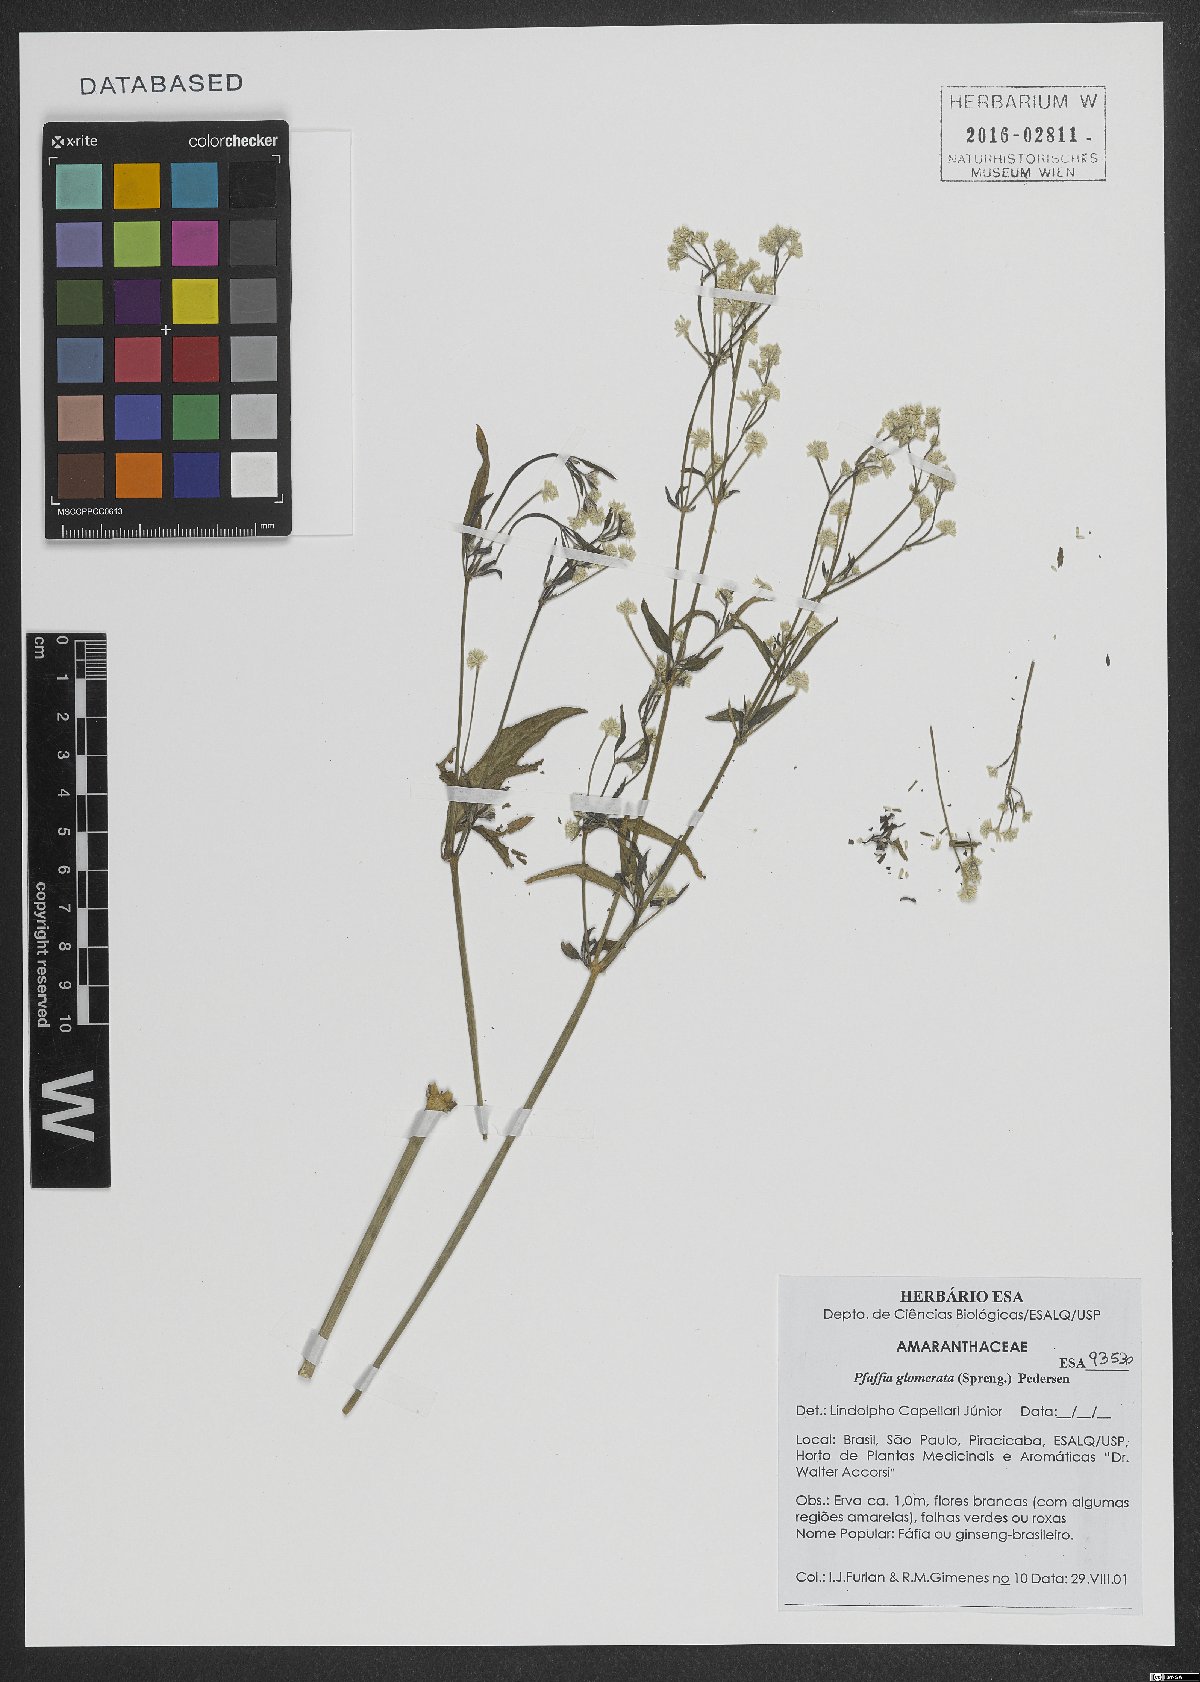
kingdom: Plantae
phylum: Tracheophyta
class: Magnoliopsida
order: Caryophyllales
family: Amaranthaceae
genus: Pfaffia
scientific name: Pfaffia glomerata
